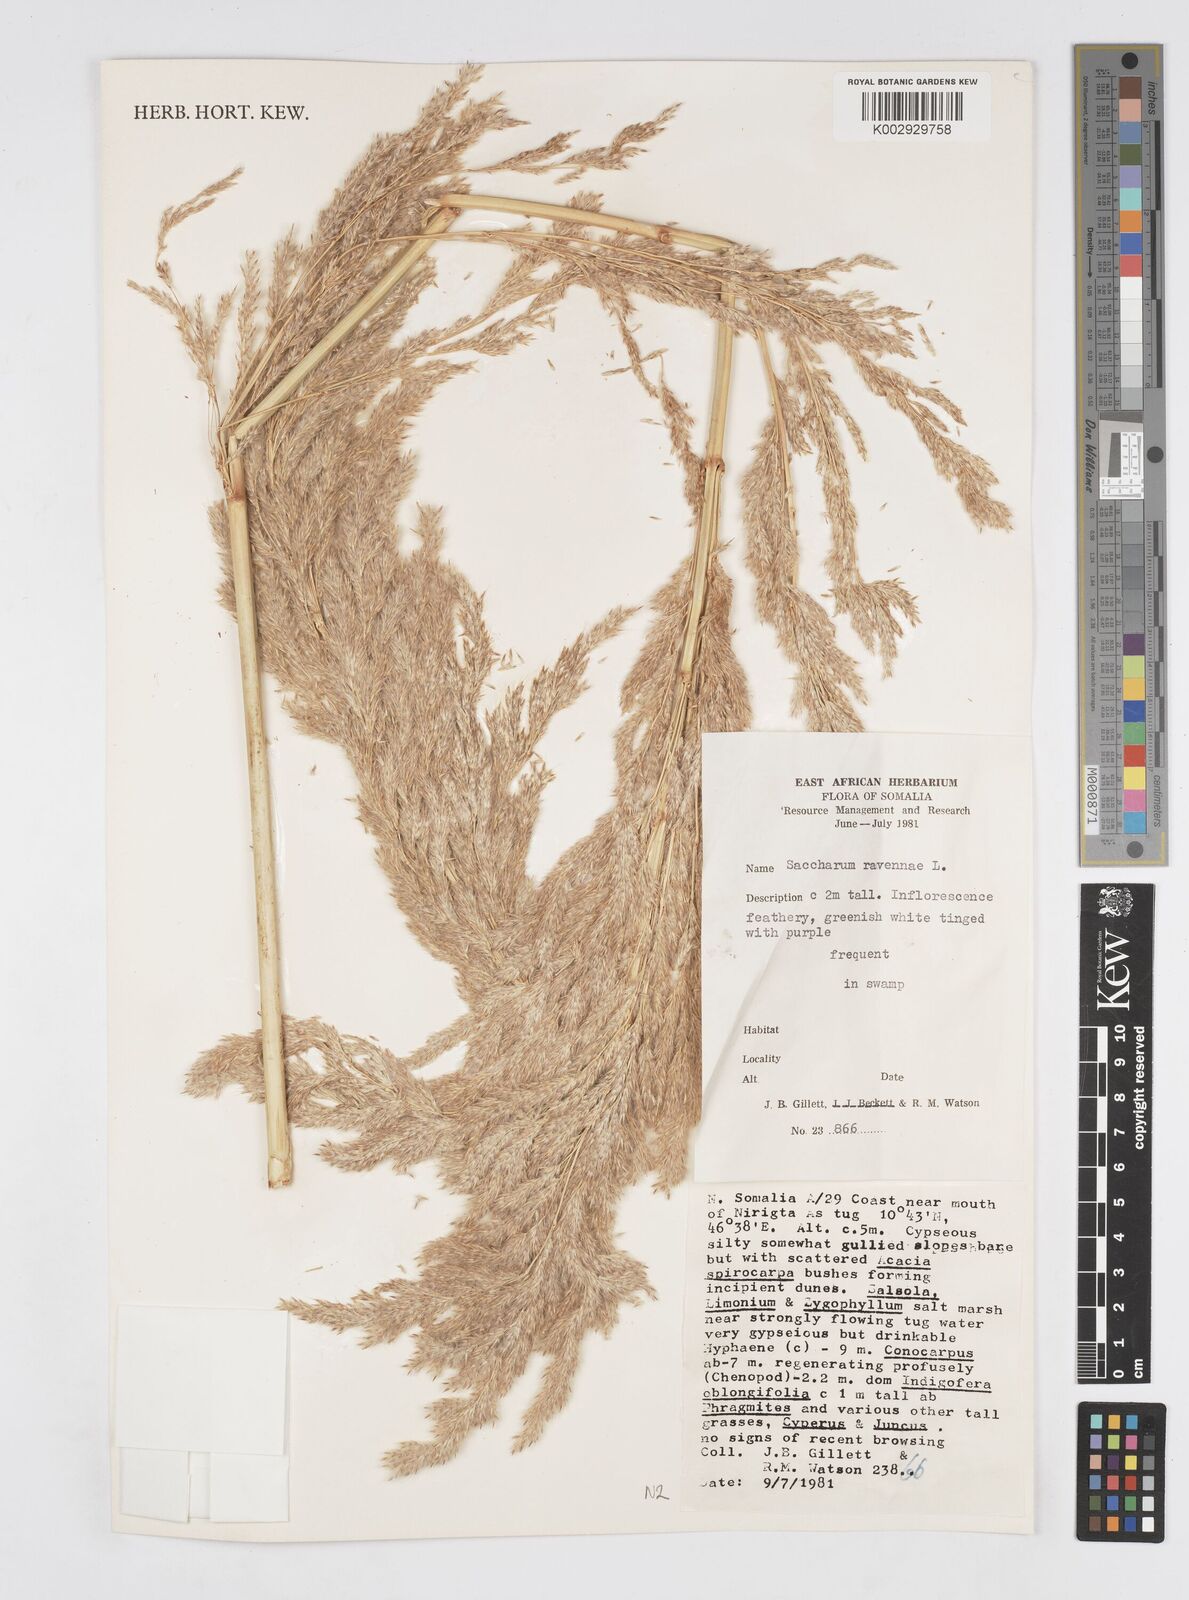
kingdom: Plantae
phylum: Tracheophyta
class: Liliopsida
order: Poales
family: Poaceae
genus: Tripidium
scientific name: Tripidium ravennae
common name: Ravenna grass
